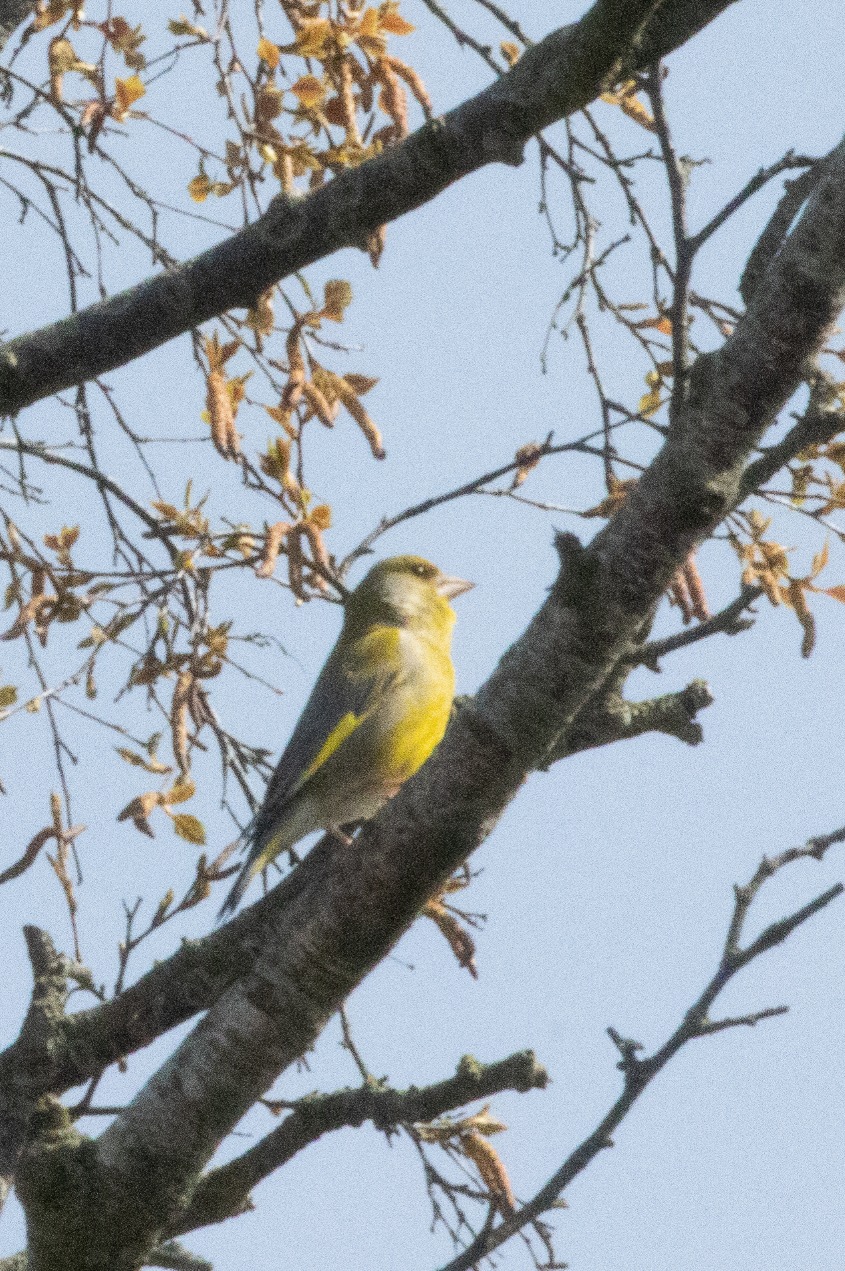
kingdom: Plantae
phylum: Tracheophyta
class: Liliopsida
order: Poales
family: Poaceae
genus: Chloris
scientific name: Chloris chloris
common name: Grønirisk
